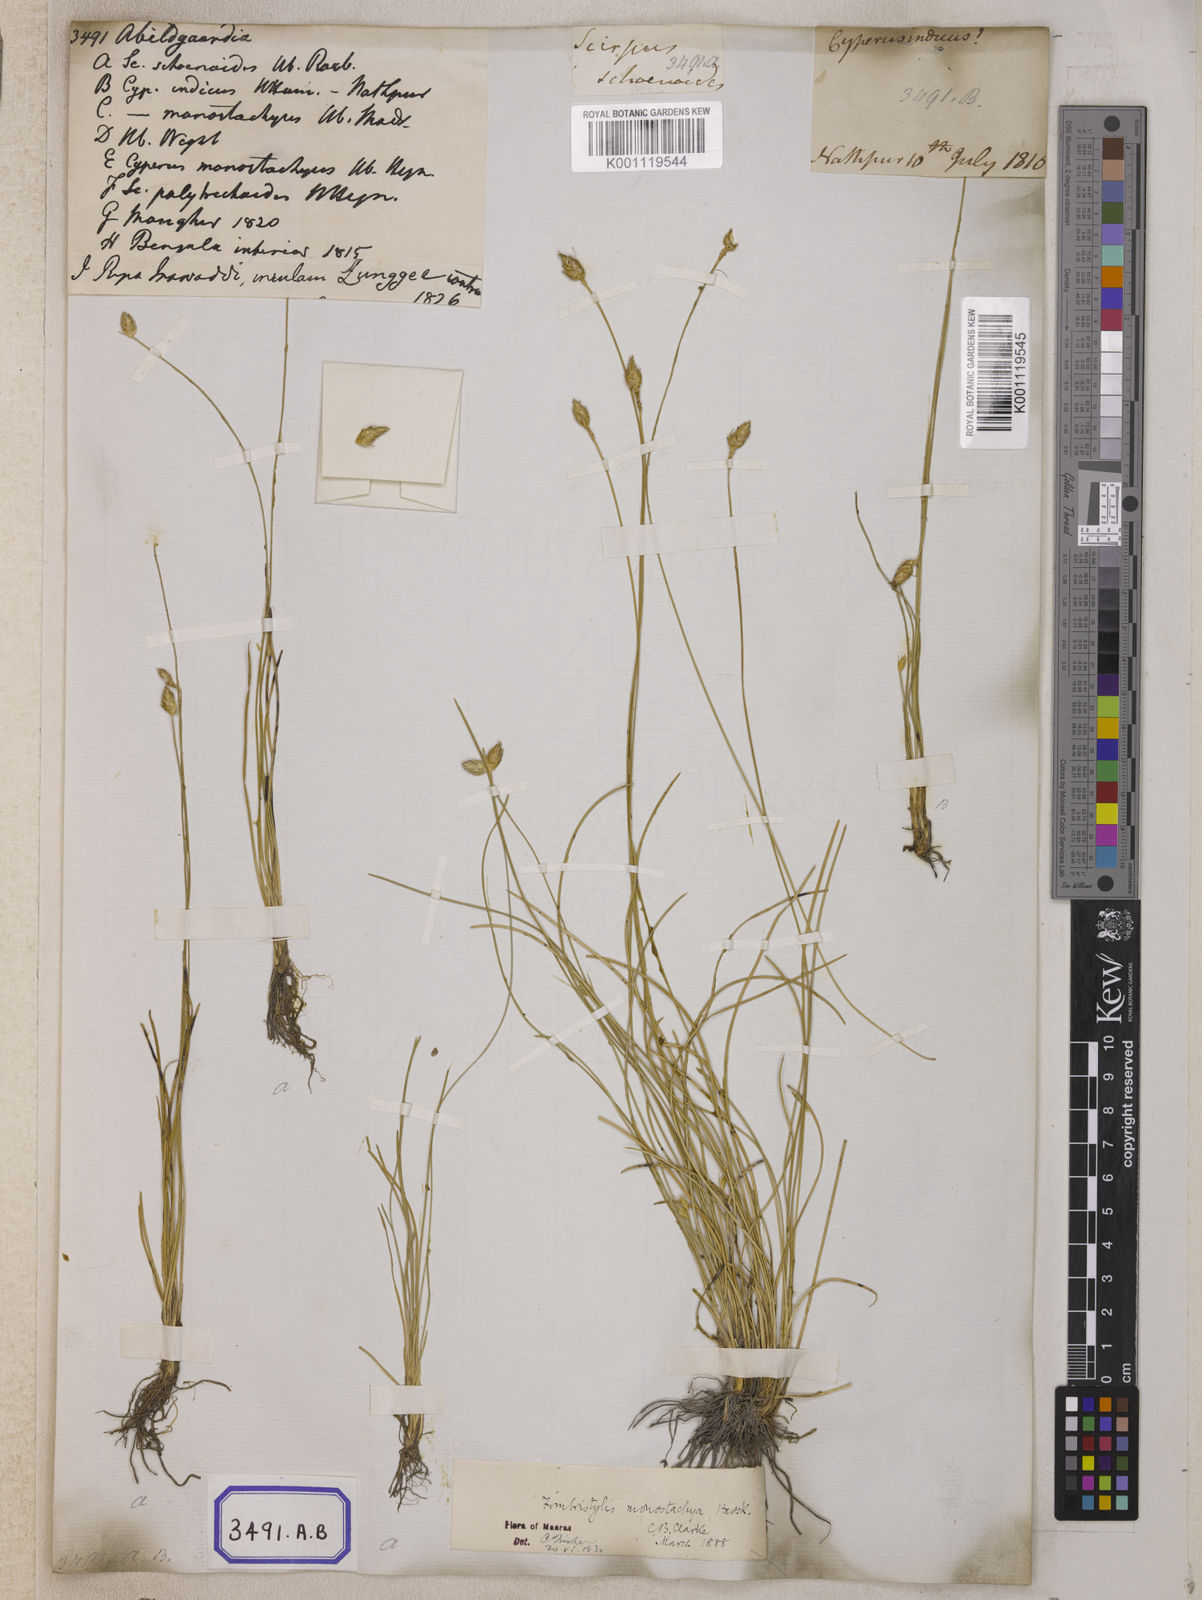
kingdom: Plantae
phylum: Tracheophyta
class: Liliopsida
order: Poales
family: Cyperaceae
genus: Abildgaardia
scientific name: Abildgaardia
